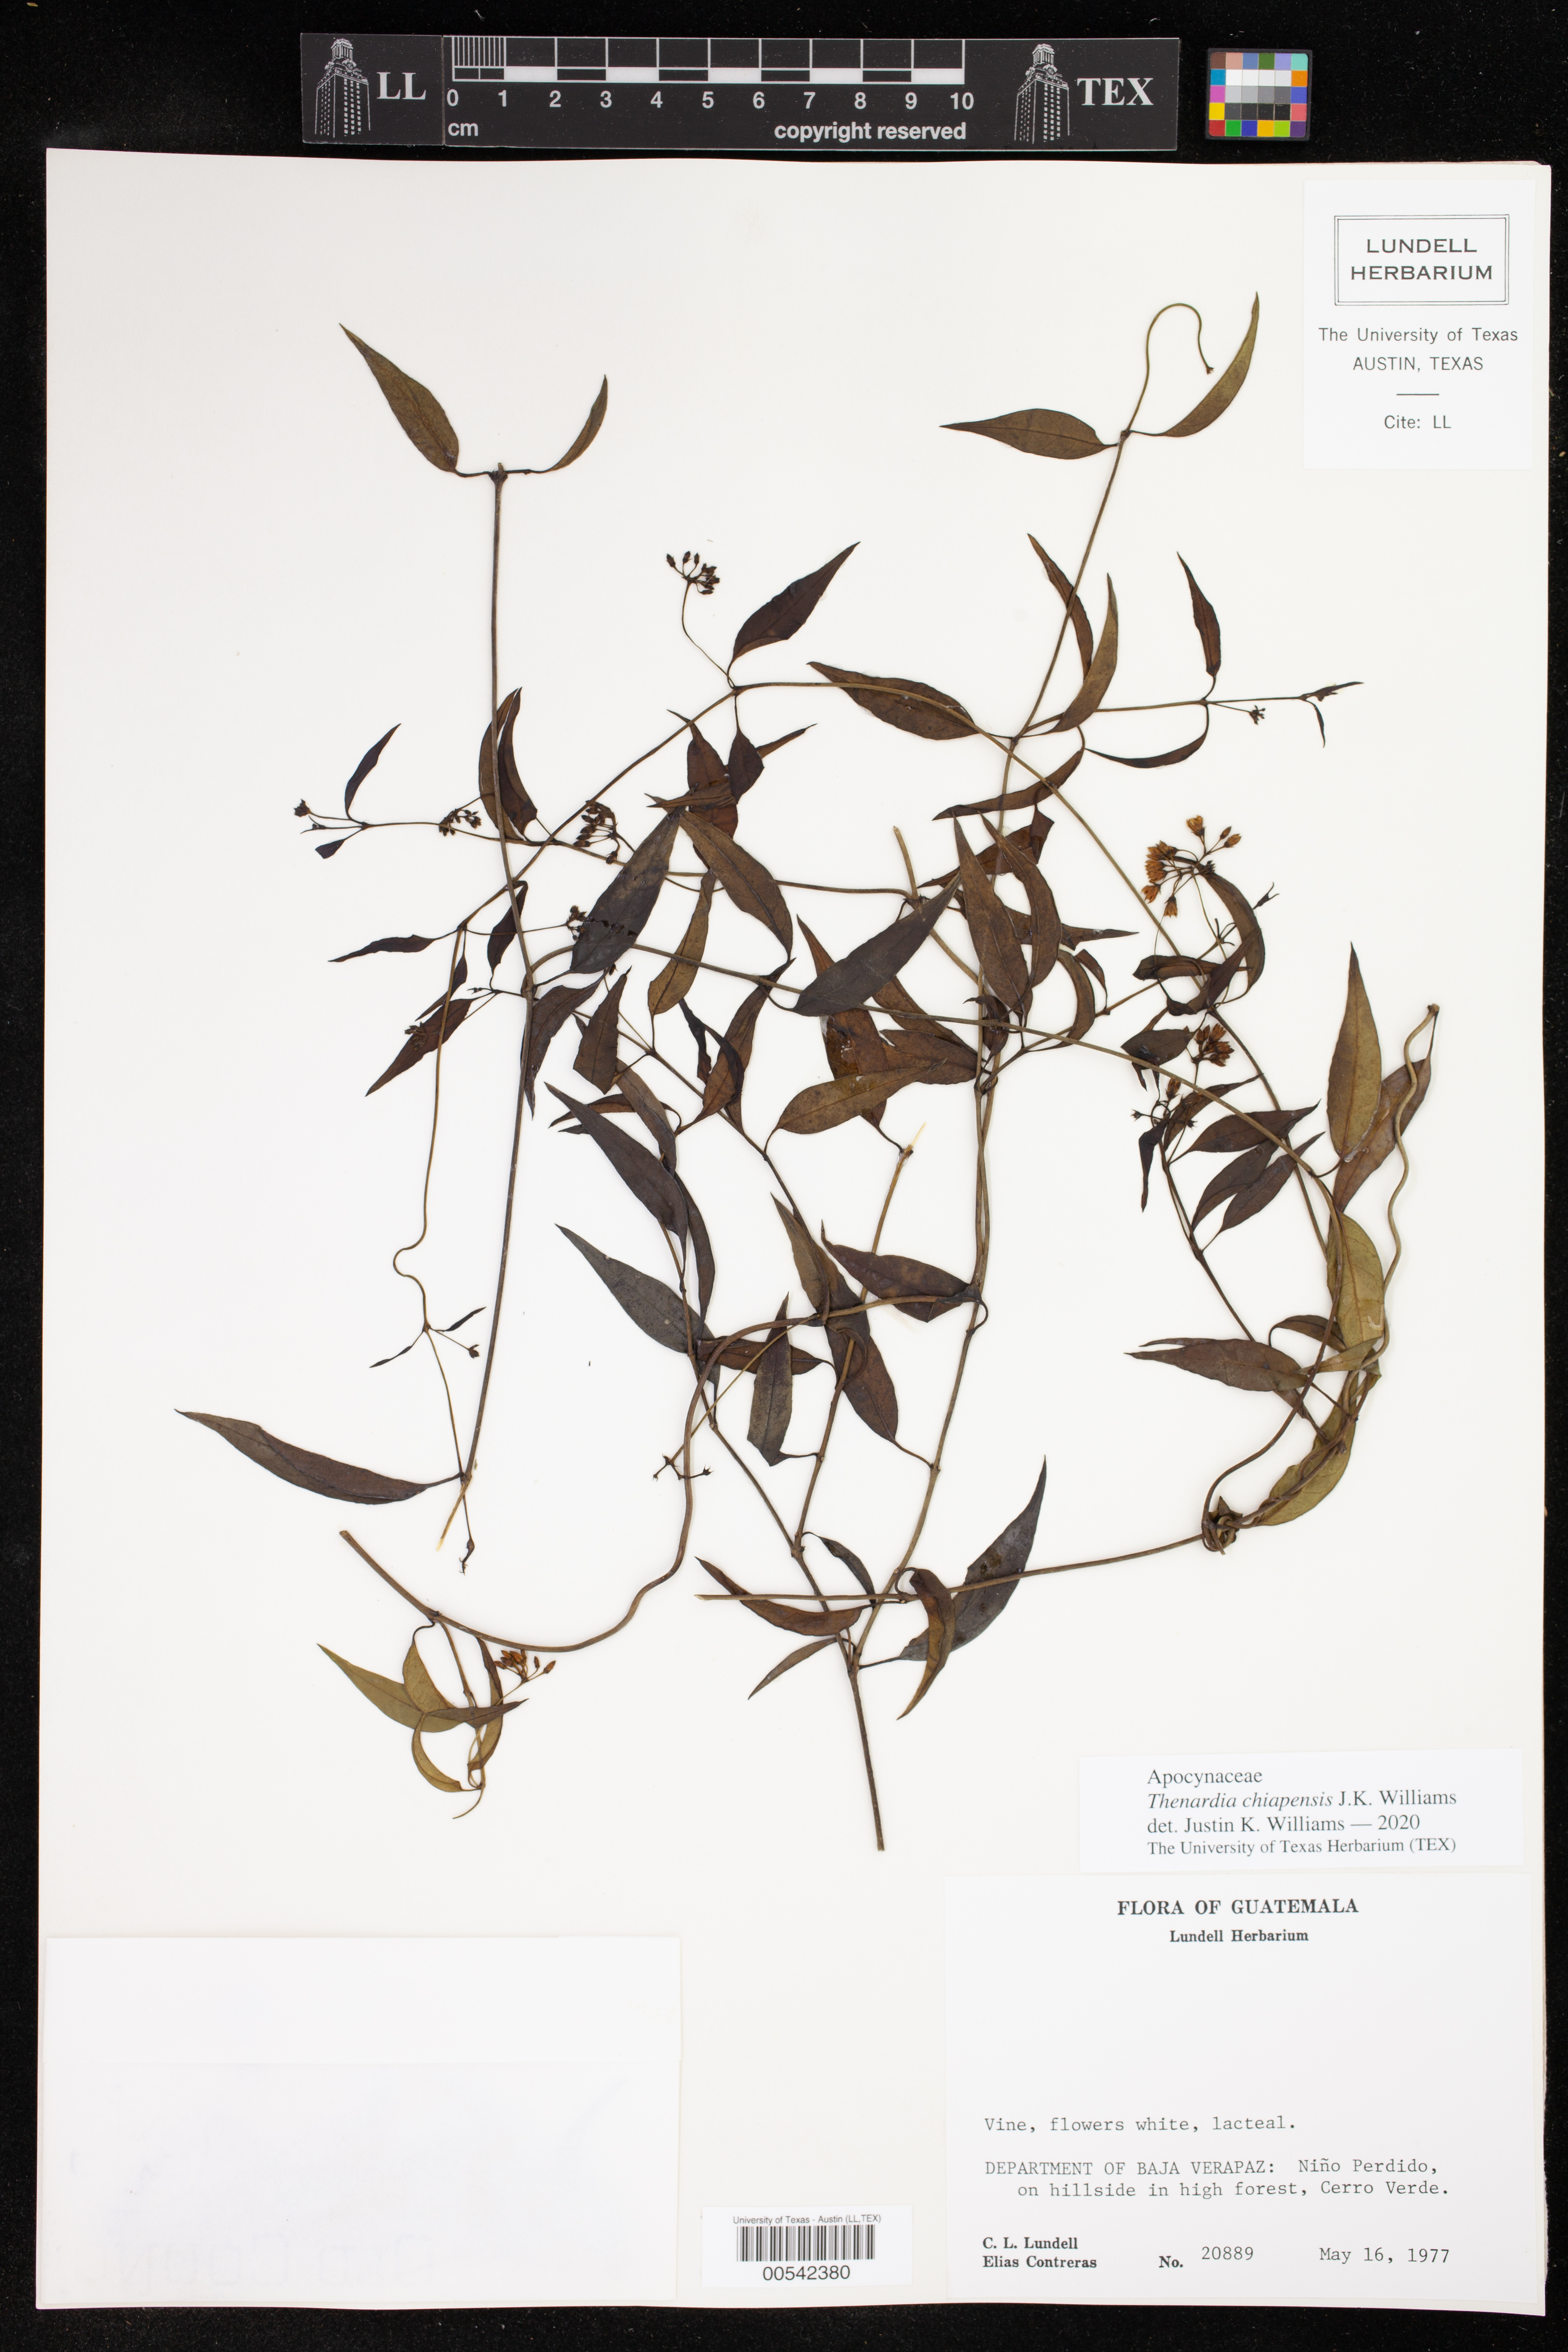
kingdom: Plantae
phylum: Tracheophyta
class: Magnoliopsida
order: Gentianales
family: Apocynaceae
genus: Thenardia
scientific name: Thenardia chiapensis
